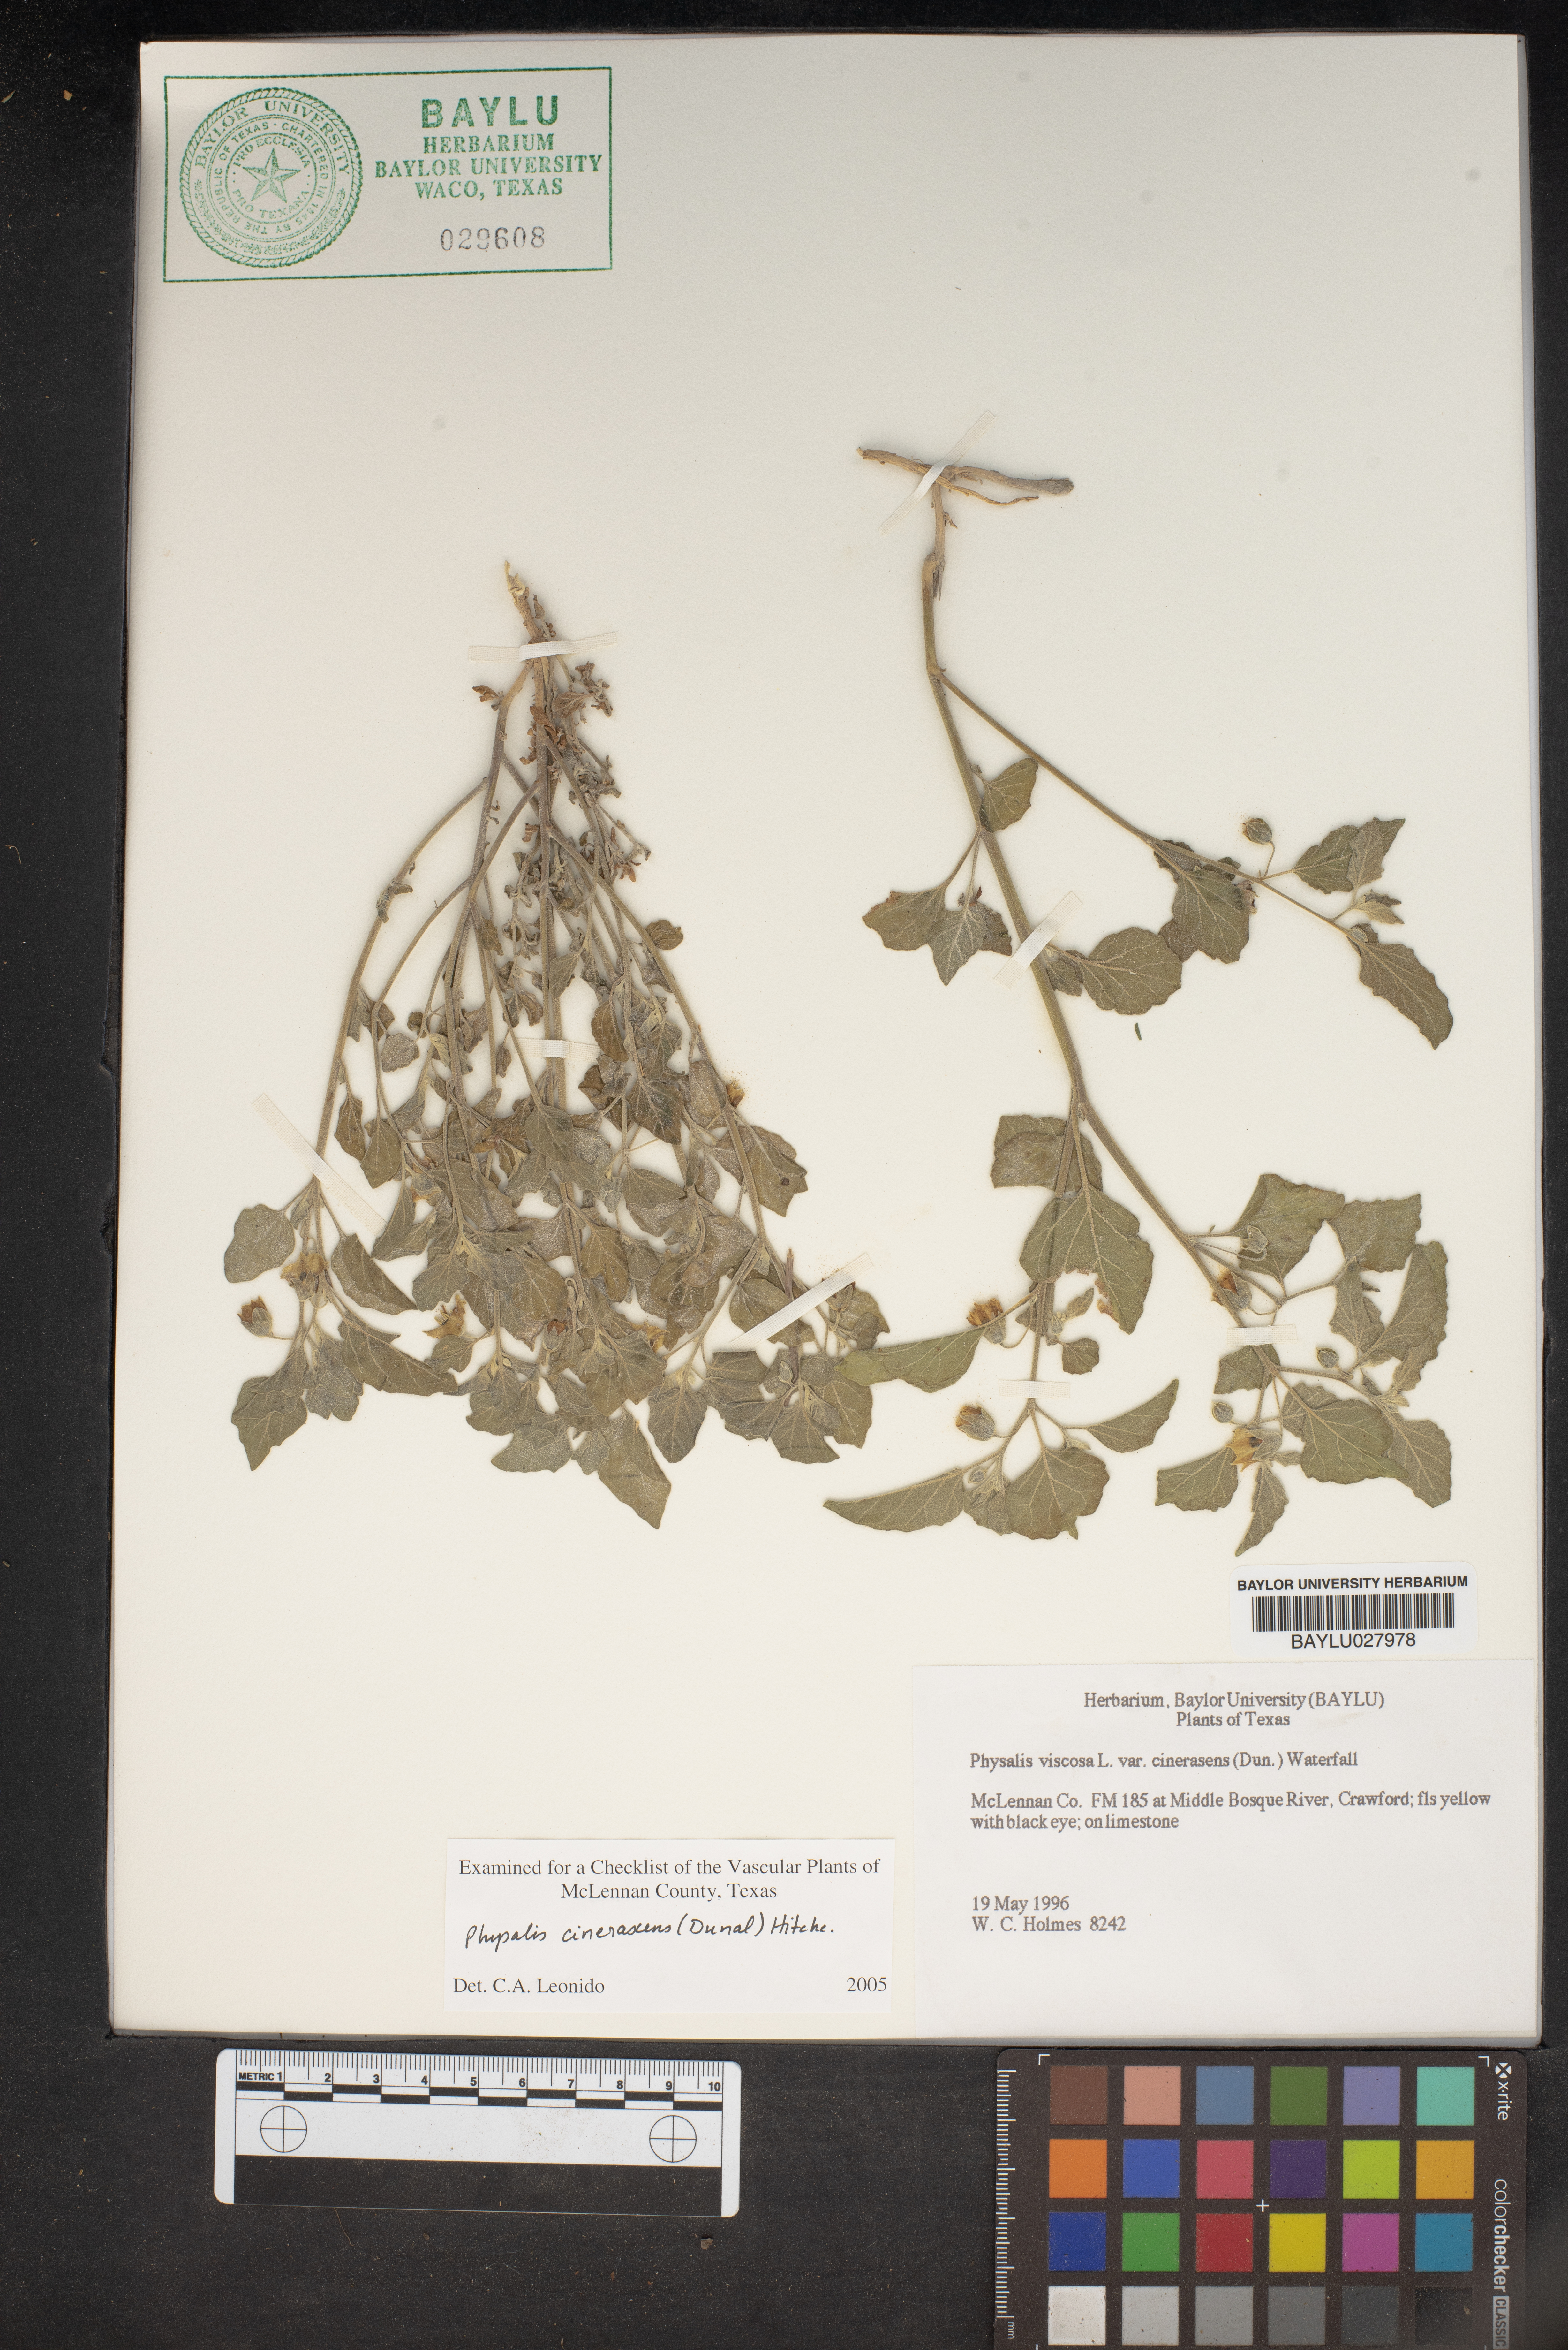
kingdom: Plantae
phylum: Tracheophyta
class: Magnoliopsida
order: Solanales
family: Solanaceae
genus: Physalis
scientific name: Physalis cinerascens
